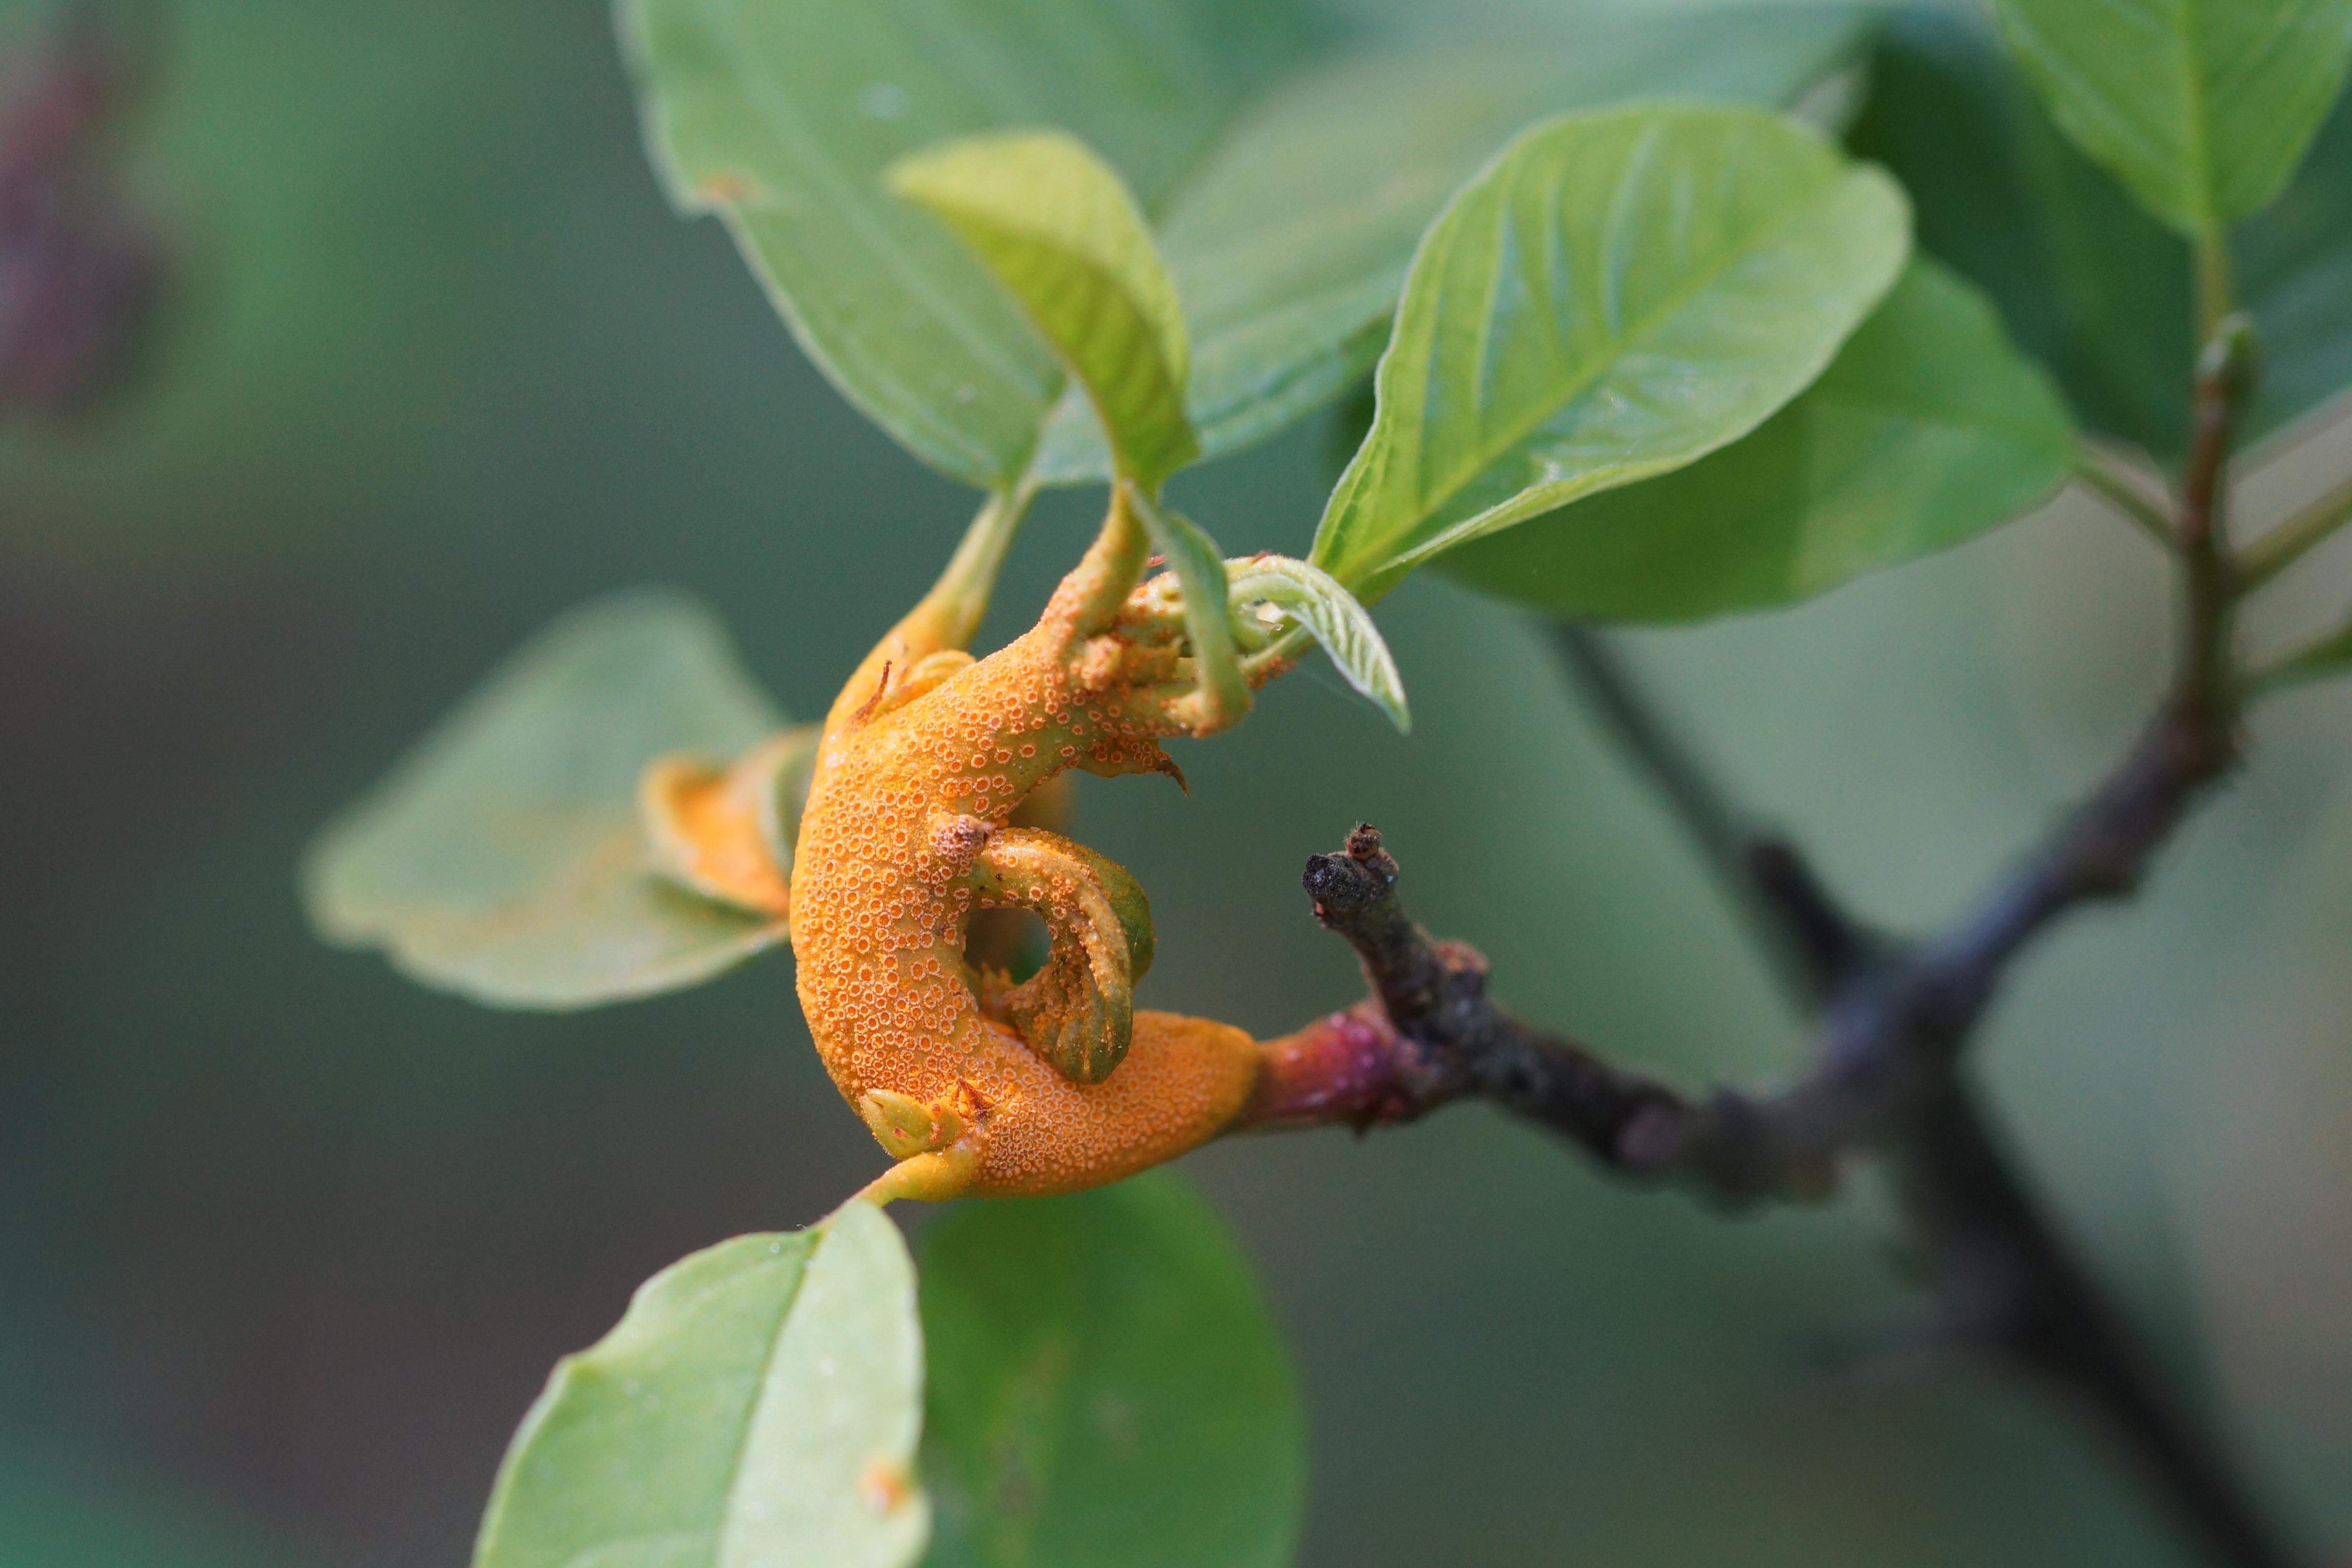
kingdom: Fungi
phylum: Basidiomycota
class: Pucciniomycetes
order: Pucciniales
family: Pucciniaceae
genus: Puccinia
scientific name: Puccinia coronata
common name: Crown rust
